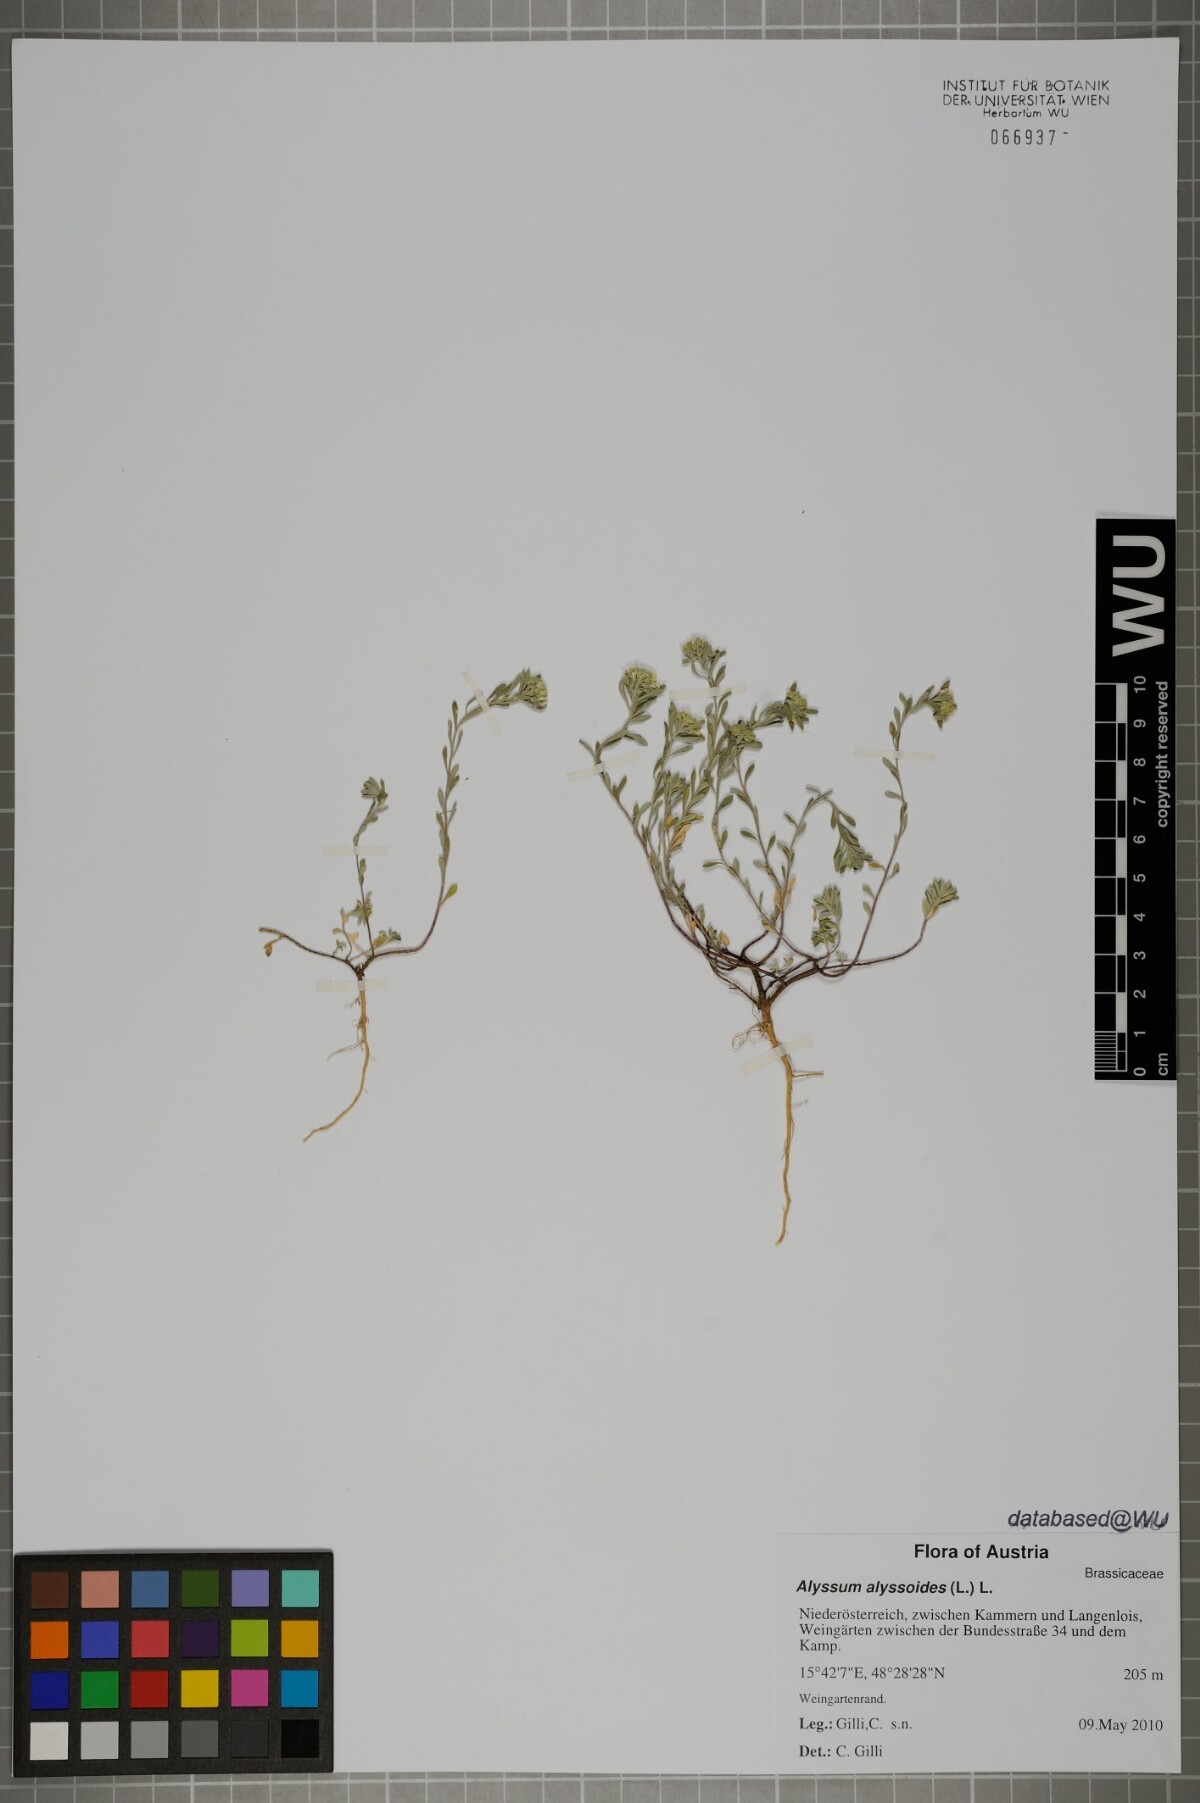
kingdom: Plantae
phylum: Tracheophyta
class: Magnoliopsida
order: Brassicales
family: Brassicaceae
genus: Alyssum
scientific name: Alyssum alyssoides
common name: Small alison
